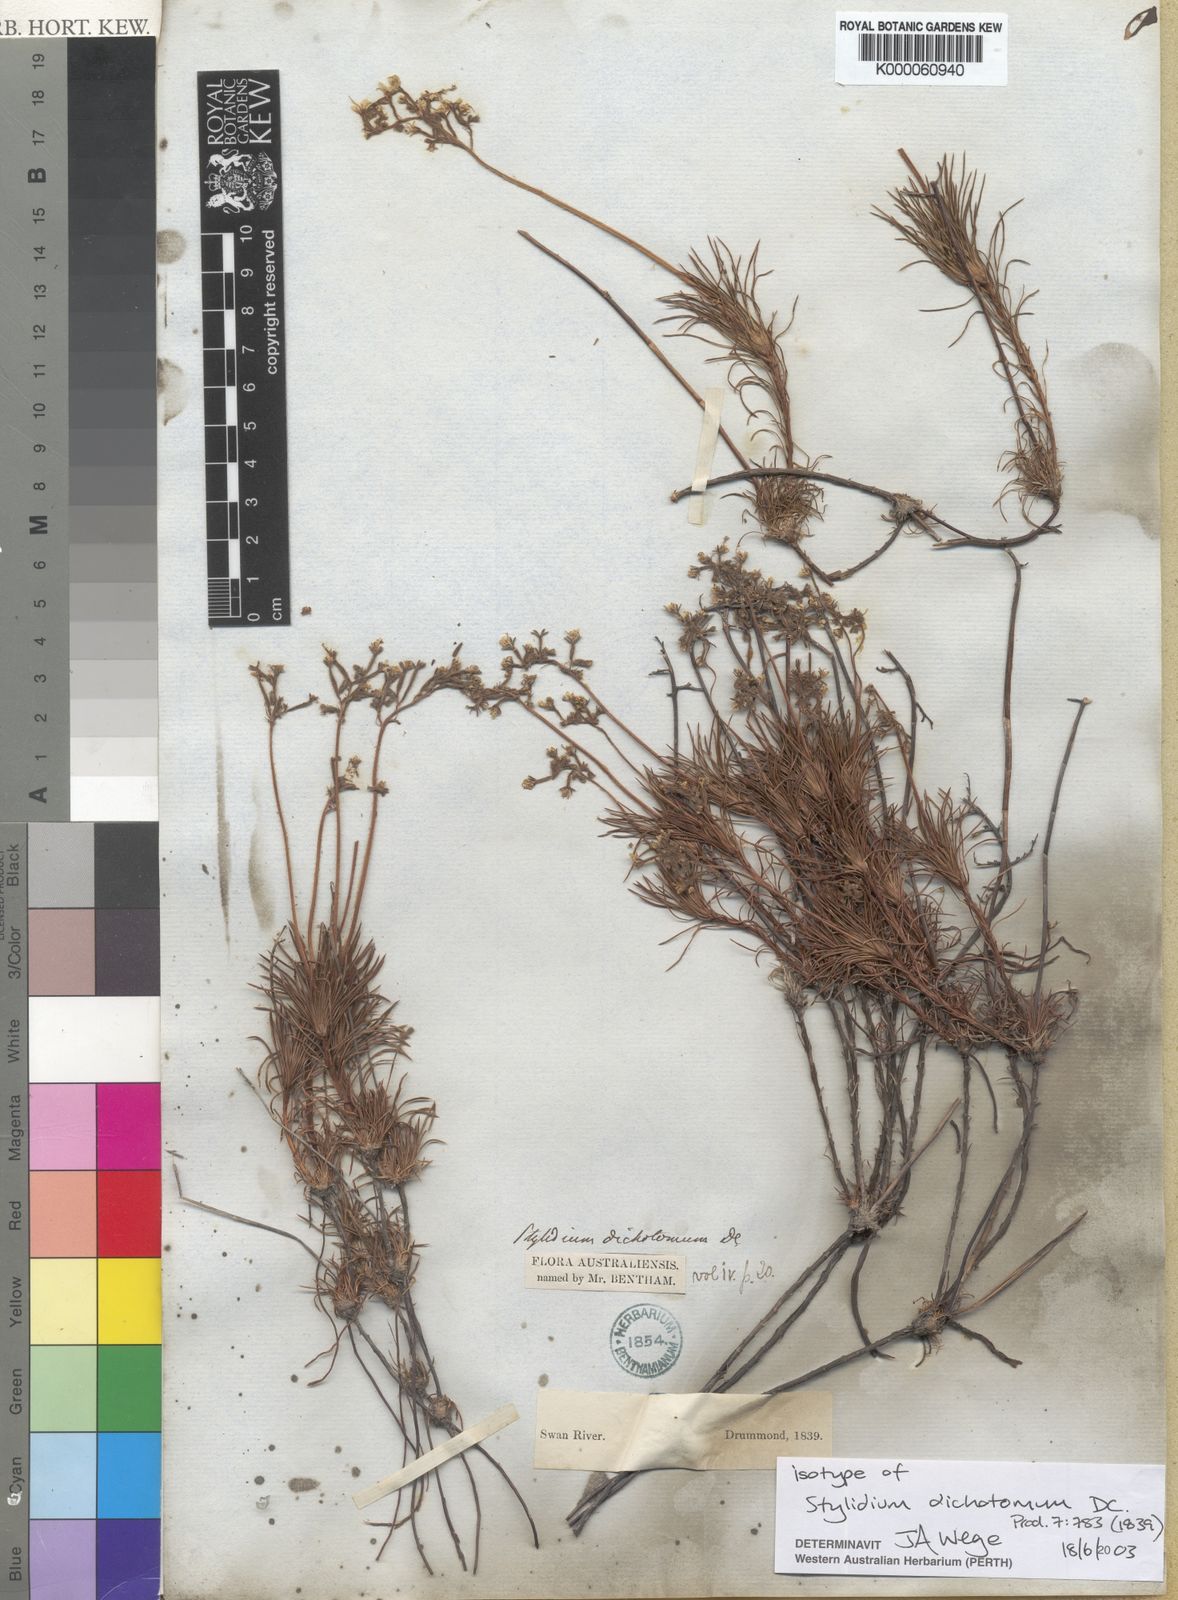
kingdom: Plantae
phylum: Tracheophyta
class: Magnoliopsida
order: Asterales
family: Stylidiaceae
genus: Stylidium
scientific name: Stylidium dichotomum
